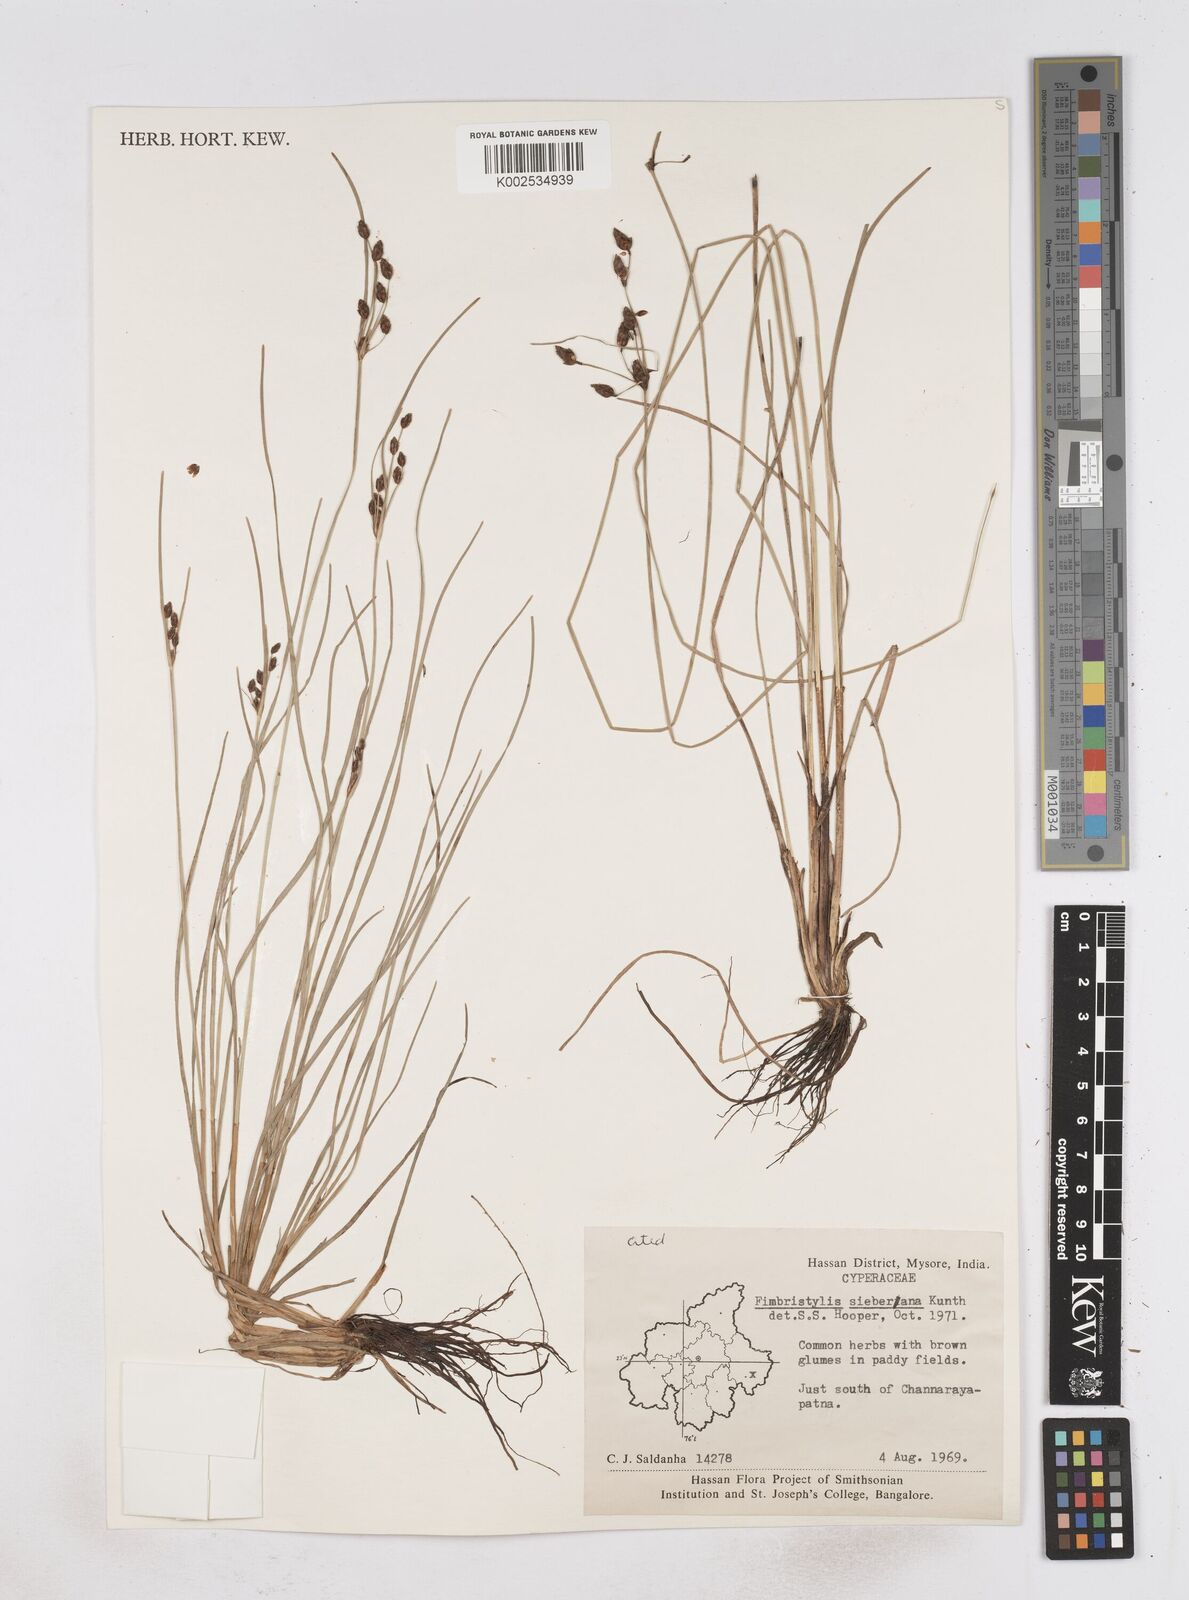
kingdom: Plantae
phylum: Tracheophyta
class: Liliopsida
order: Poales
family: Cyperaceae
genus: Fimbristylis
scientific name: Fimbristylis ferruginea
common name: West indian fimbry
